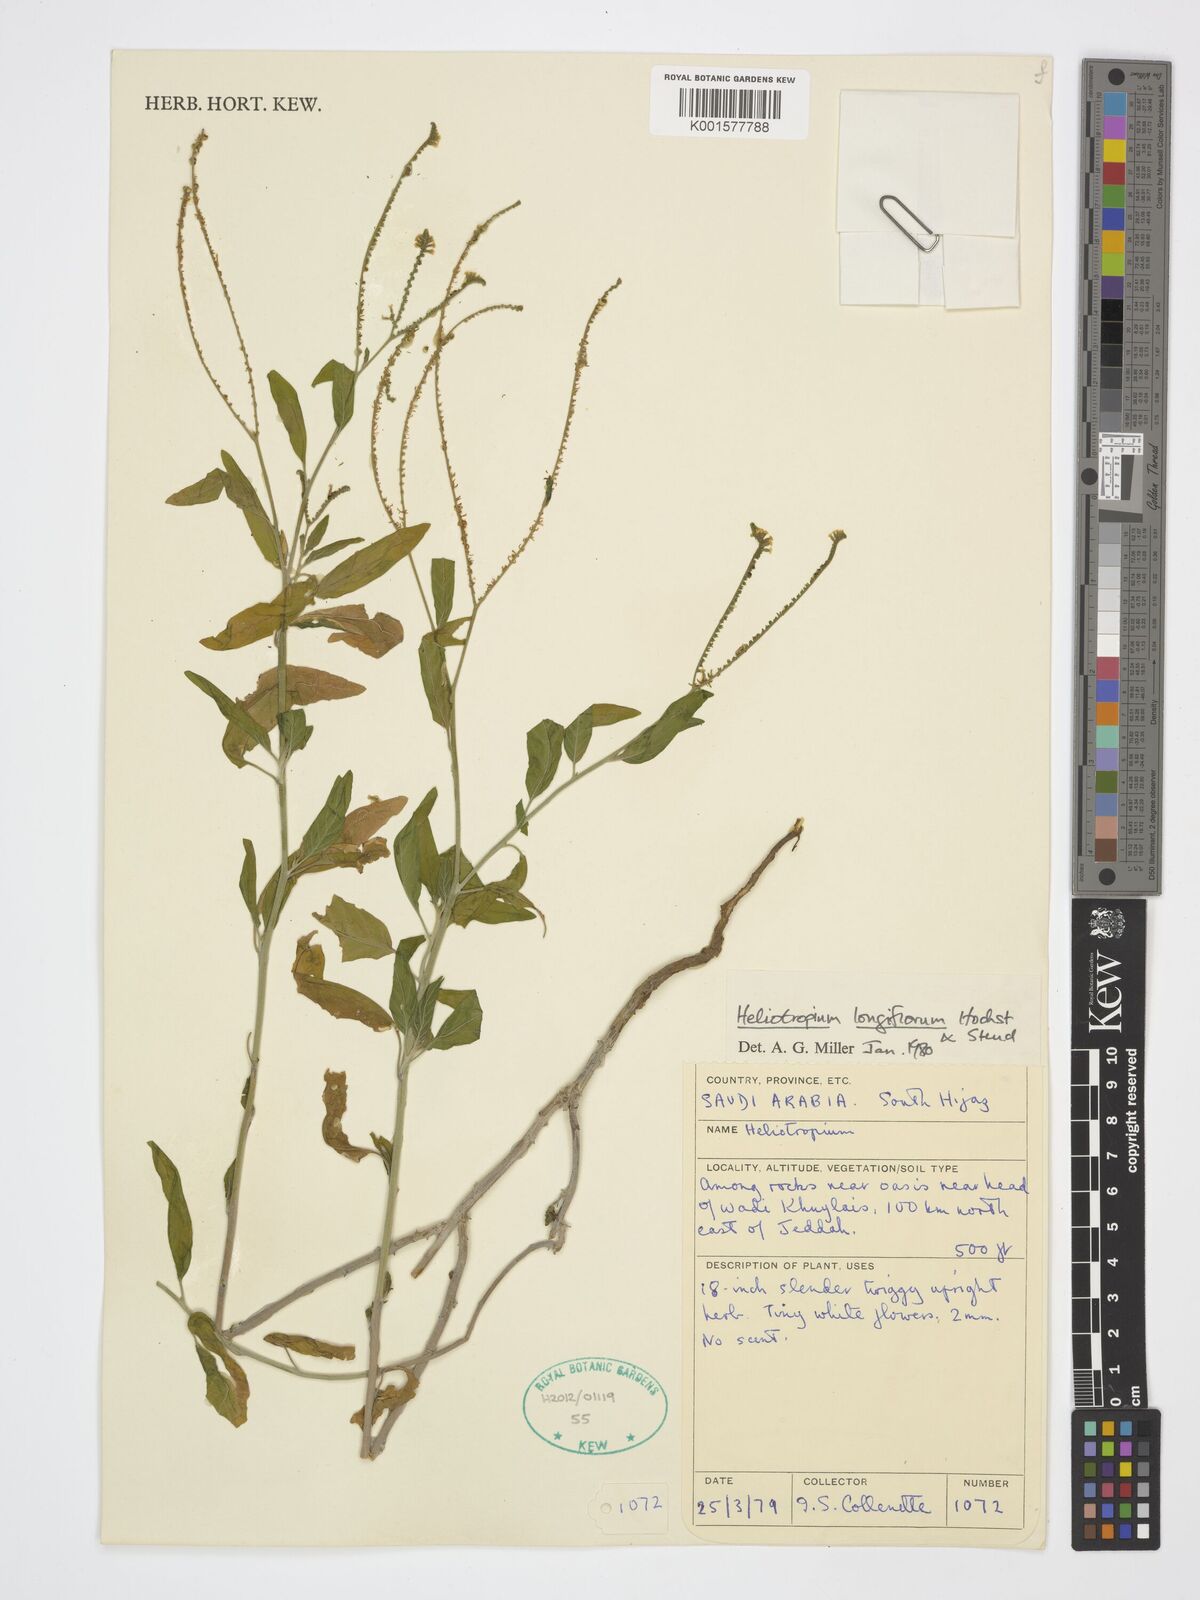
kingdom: Plantae
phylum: Tracheophyta
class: Magnoliopsida
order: Boraginales
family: Heliotropiaceae
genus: Heliotropium
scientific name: Heliotropium longiflorum
